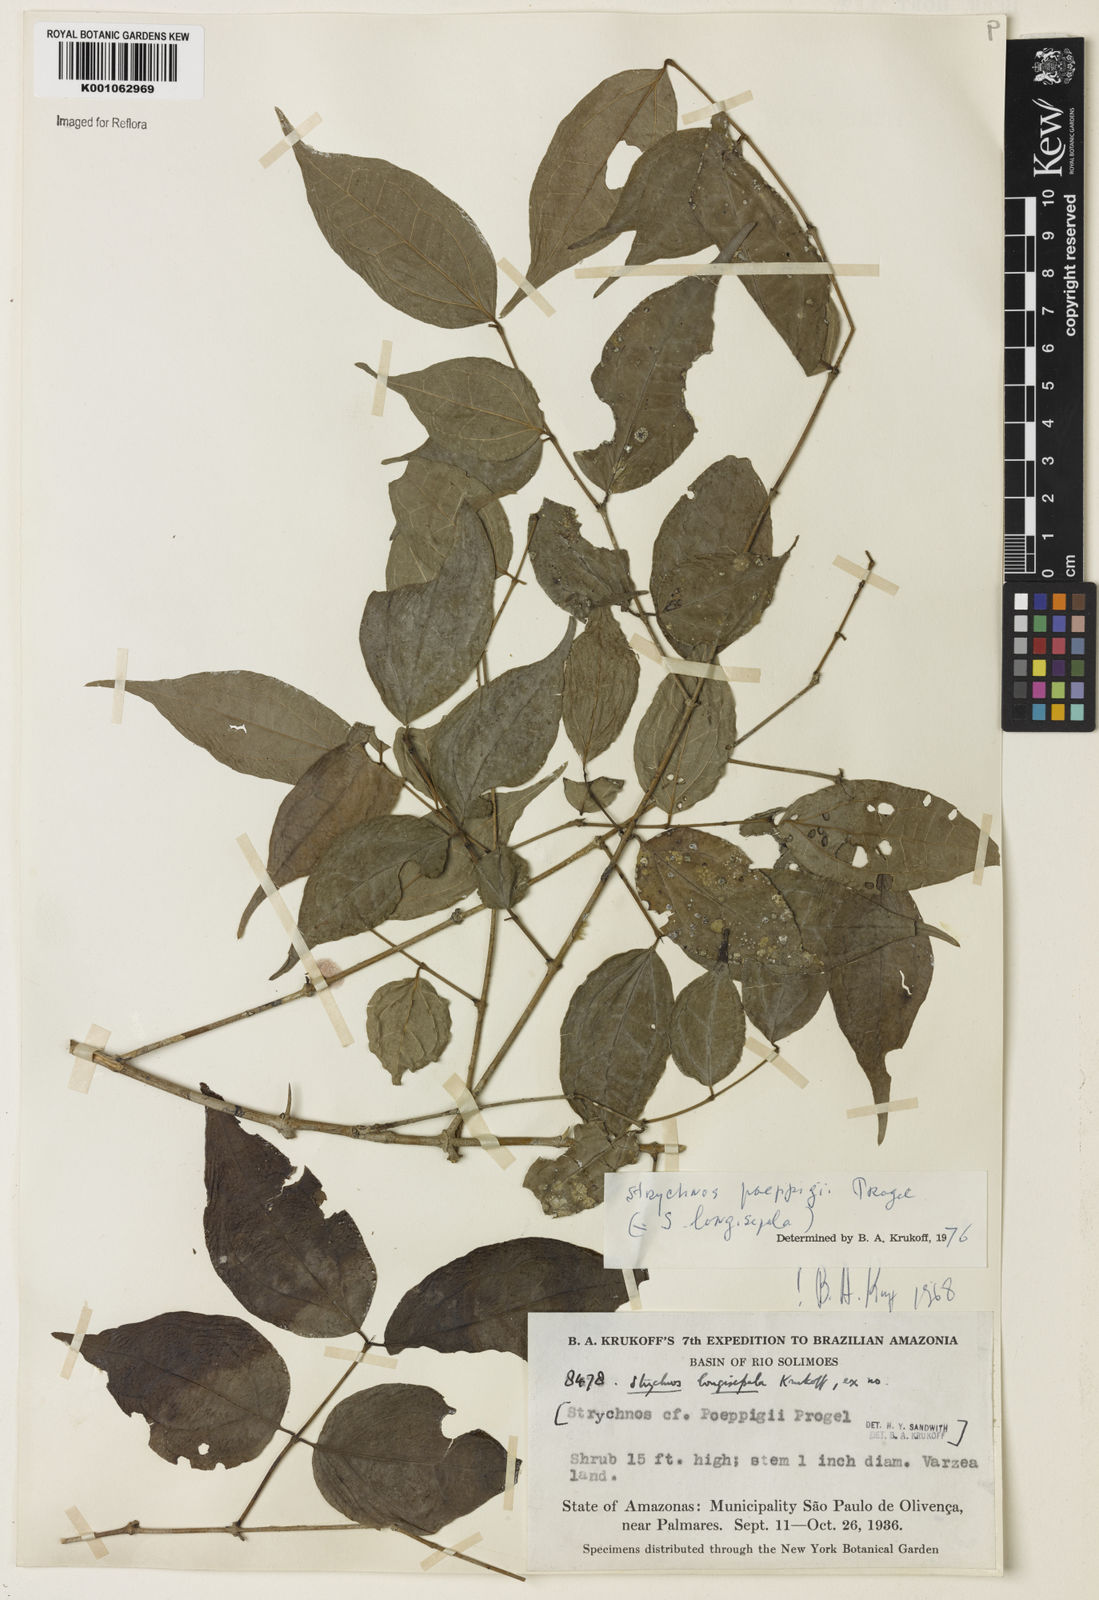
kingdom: Plantae
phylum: Tracheophyta
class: Magnoliopsida
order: Gentianales
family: Loganiaceae
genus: Strychnos
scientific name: Strychnos poeppigii
